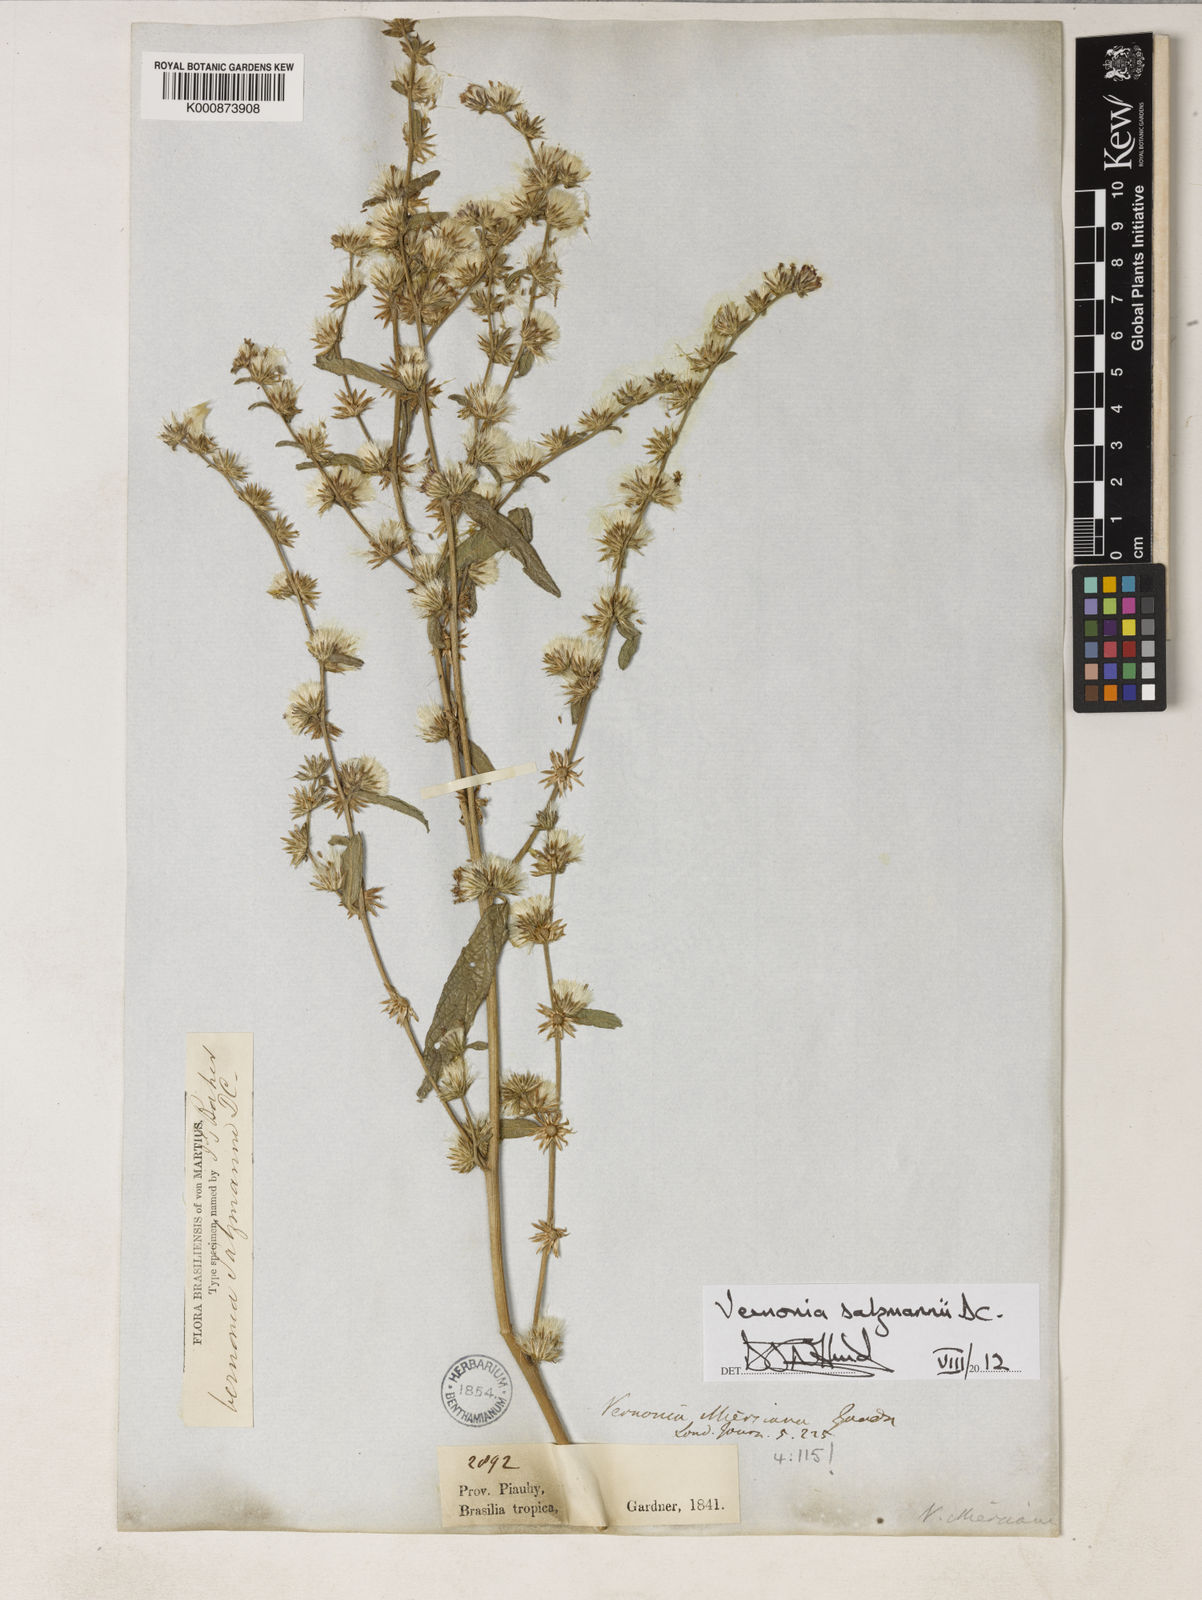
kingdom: Plantae
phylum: Tracheophyta
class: Magnoliopsida
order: Asterales
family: Asteraceae
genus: Lepidaploa
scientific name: Lepidaploa salzmannii
